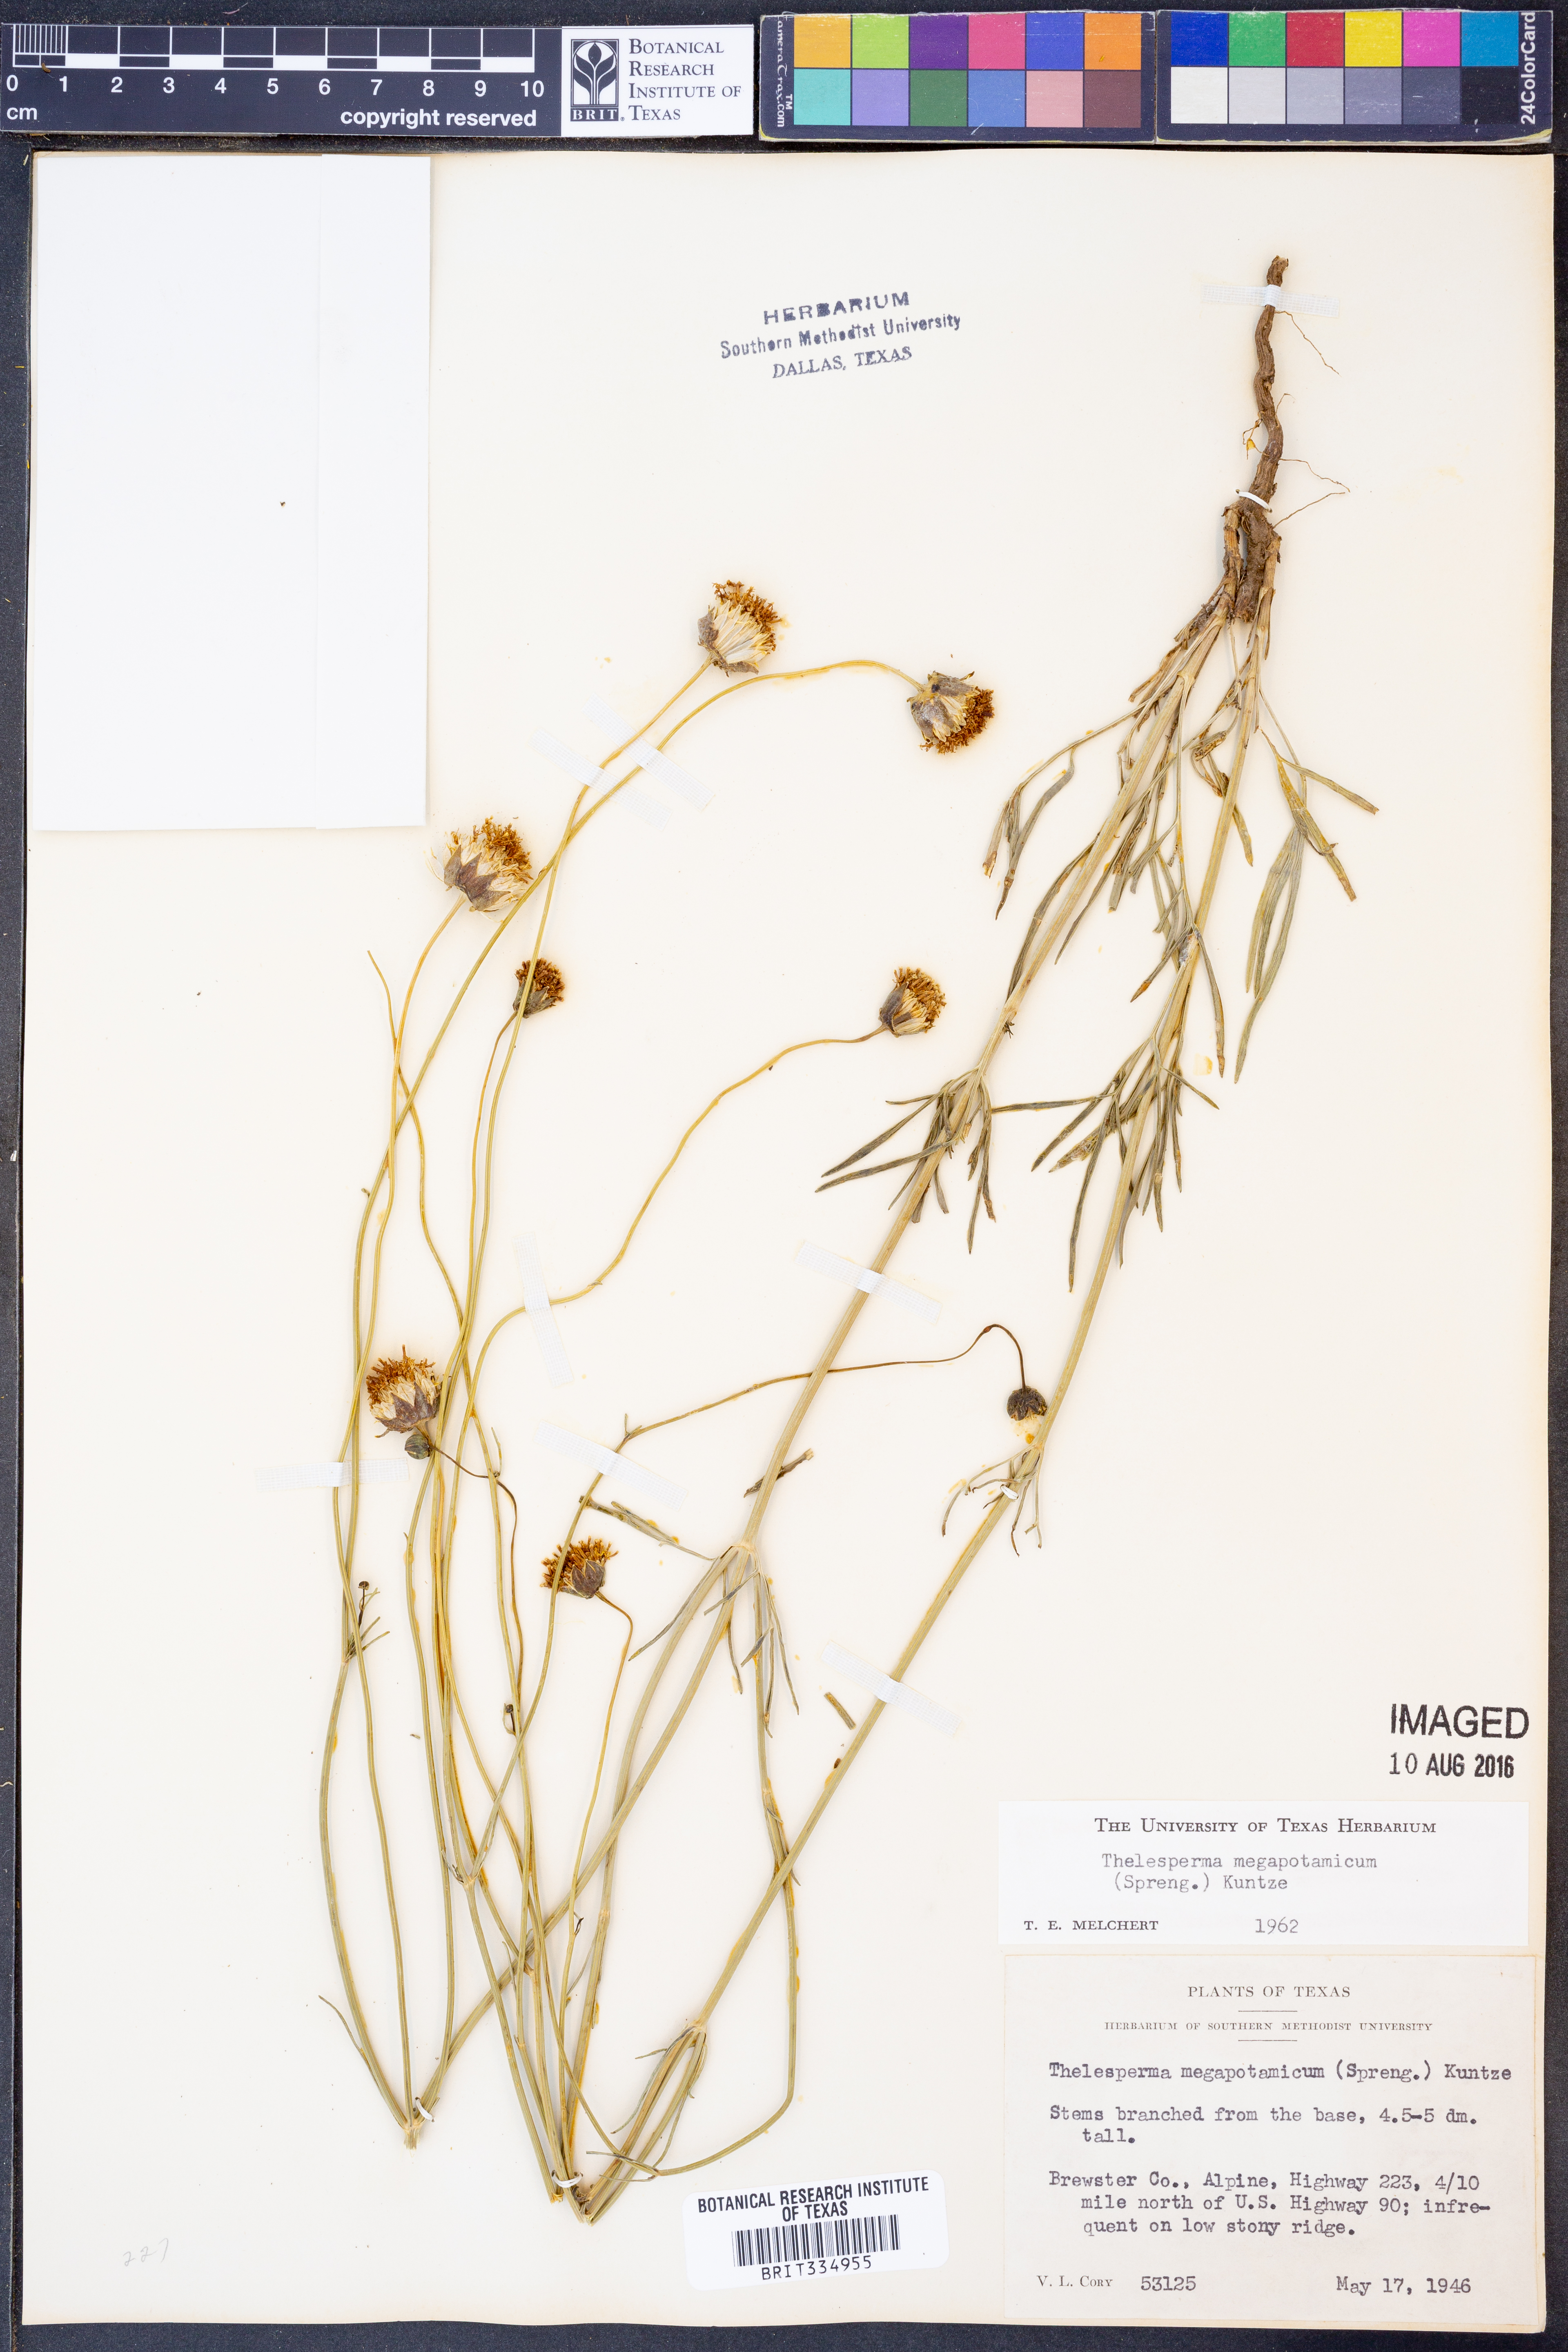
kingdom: Plantae
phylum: Tracheophyta
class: Magnoliopsida
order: Asterales
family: Asteraceae
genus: Thelesperma
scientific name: Thelesperma megapotamicum
